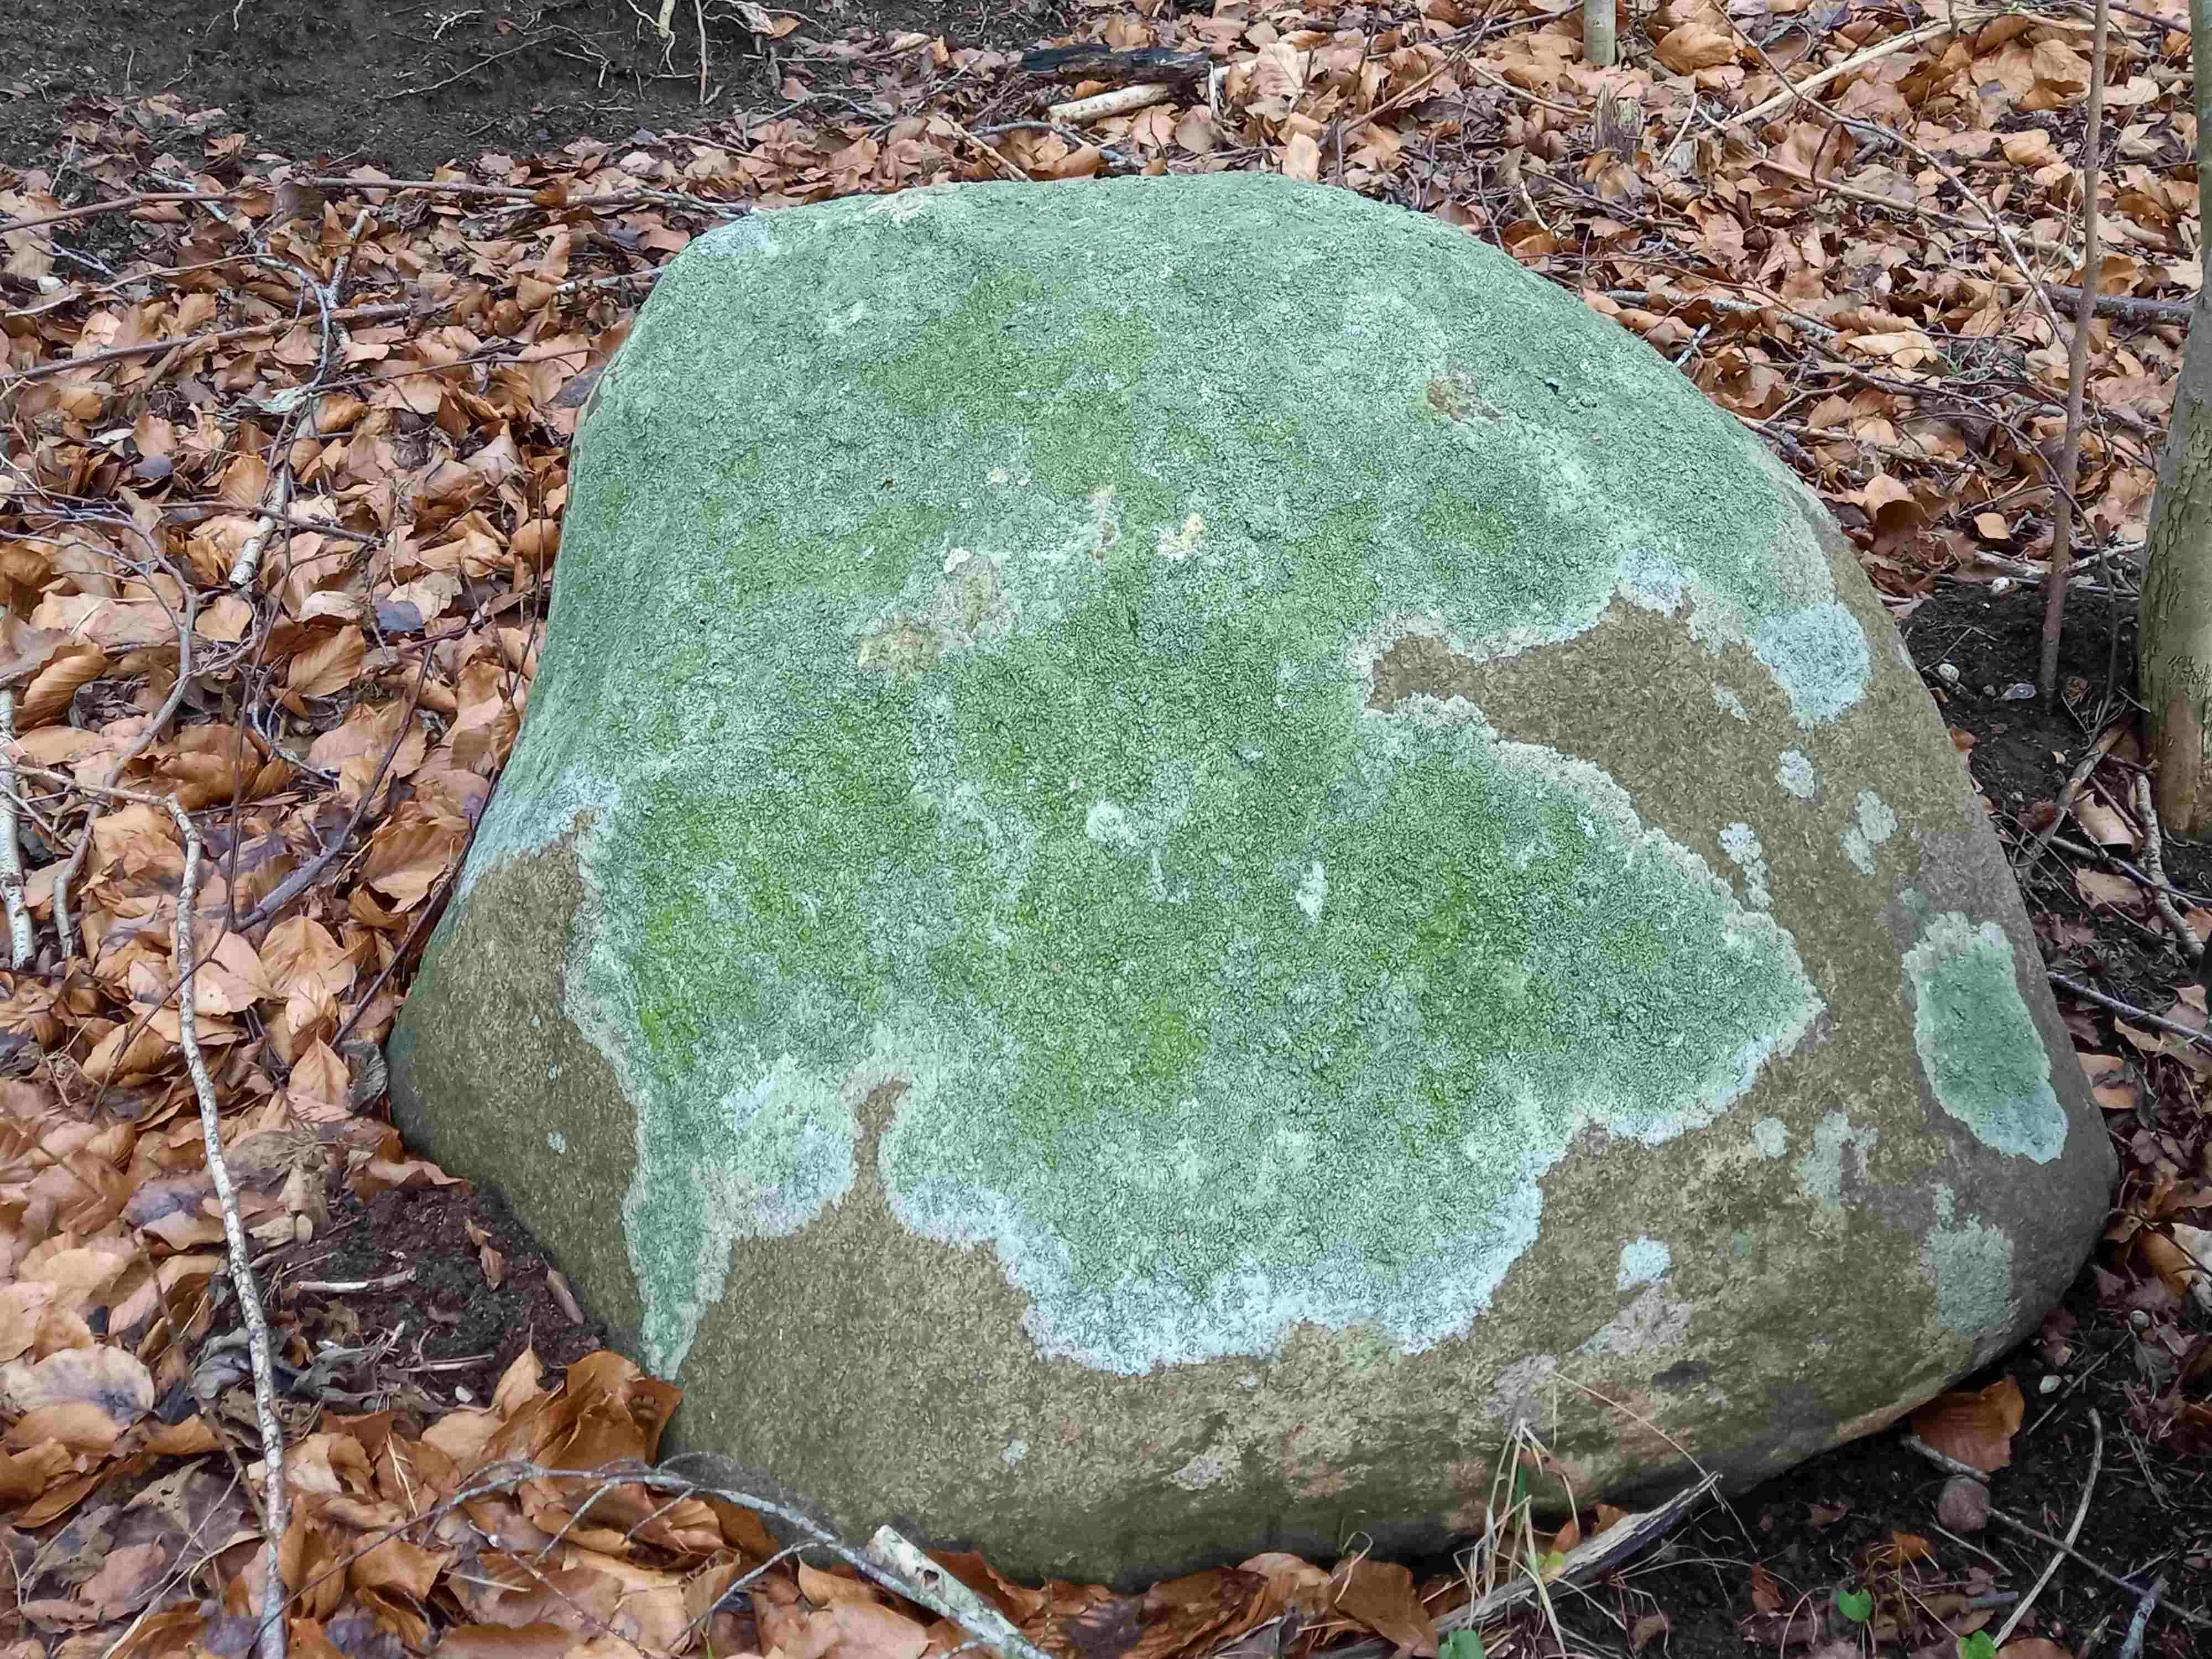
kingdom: Fungi
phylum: Ascomycota
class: Lecanoromycetes
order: Lecanorales
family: Parmeliaceae
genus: Lichen
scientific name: Lichen
